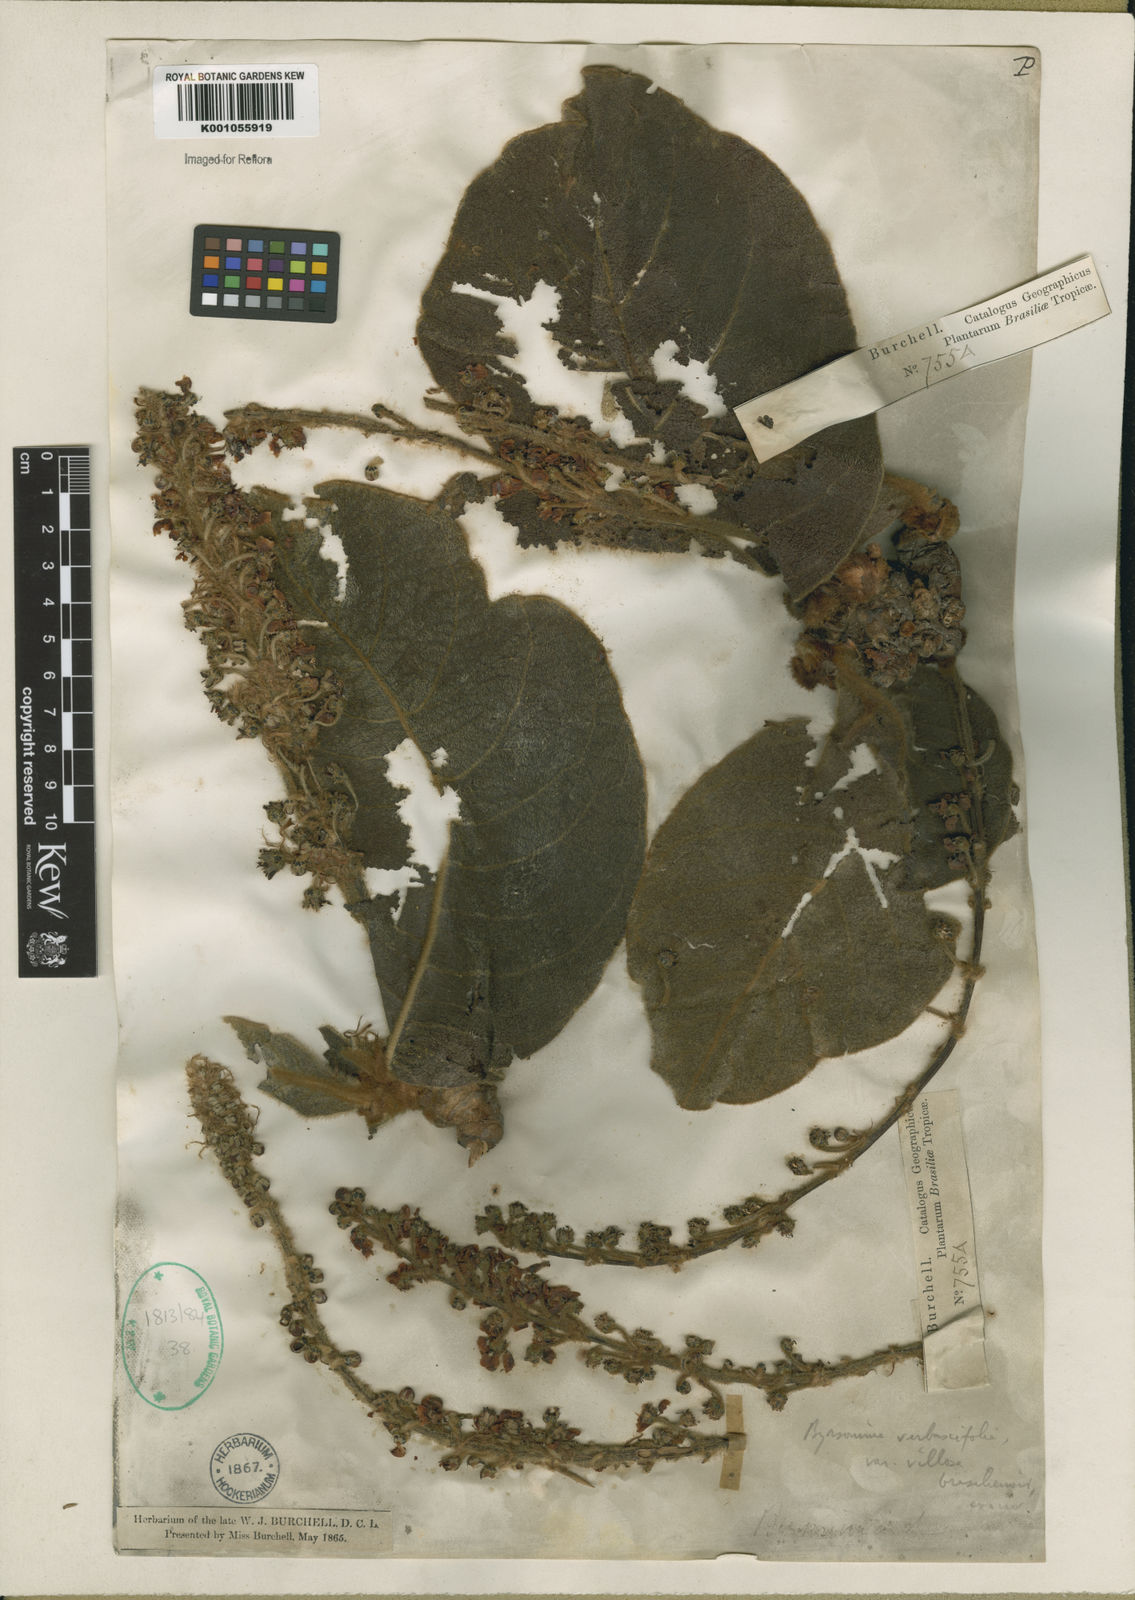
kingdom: Plantae
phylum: Tracheophyta
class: Magnoliopsida
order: Malpighiales
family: Malpighiaceae
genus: Byrsonima
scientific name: Byrsonima verbascifolia
